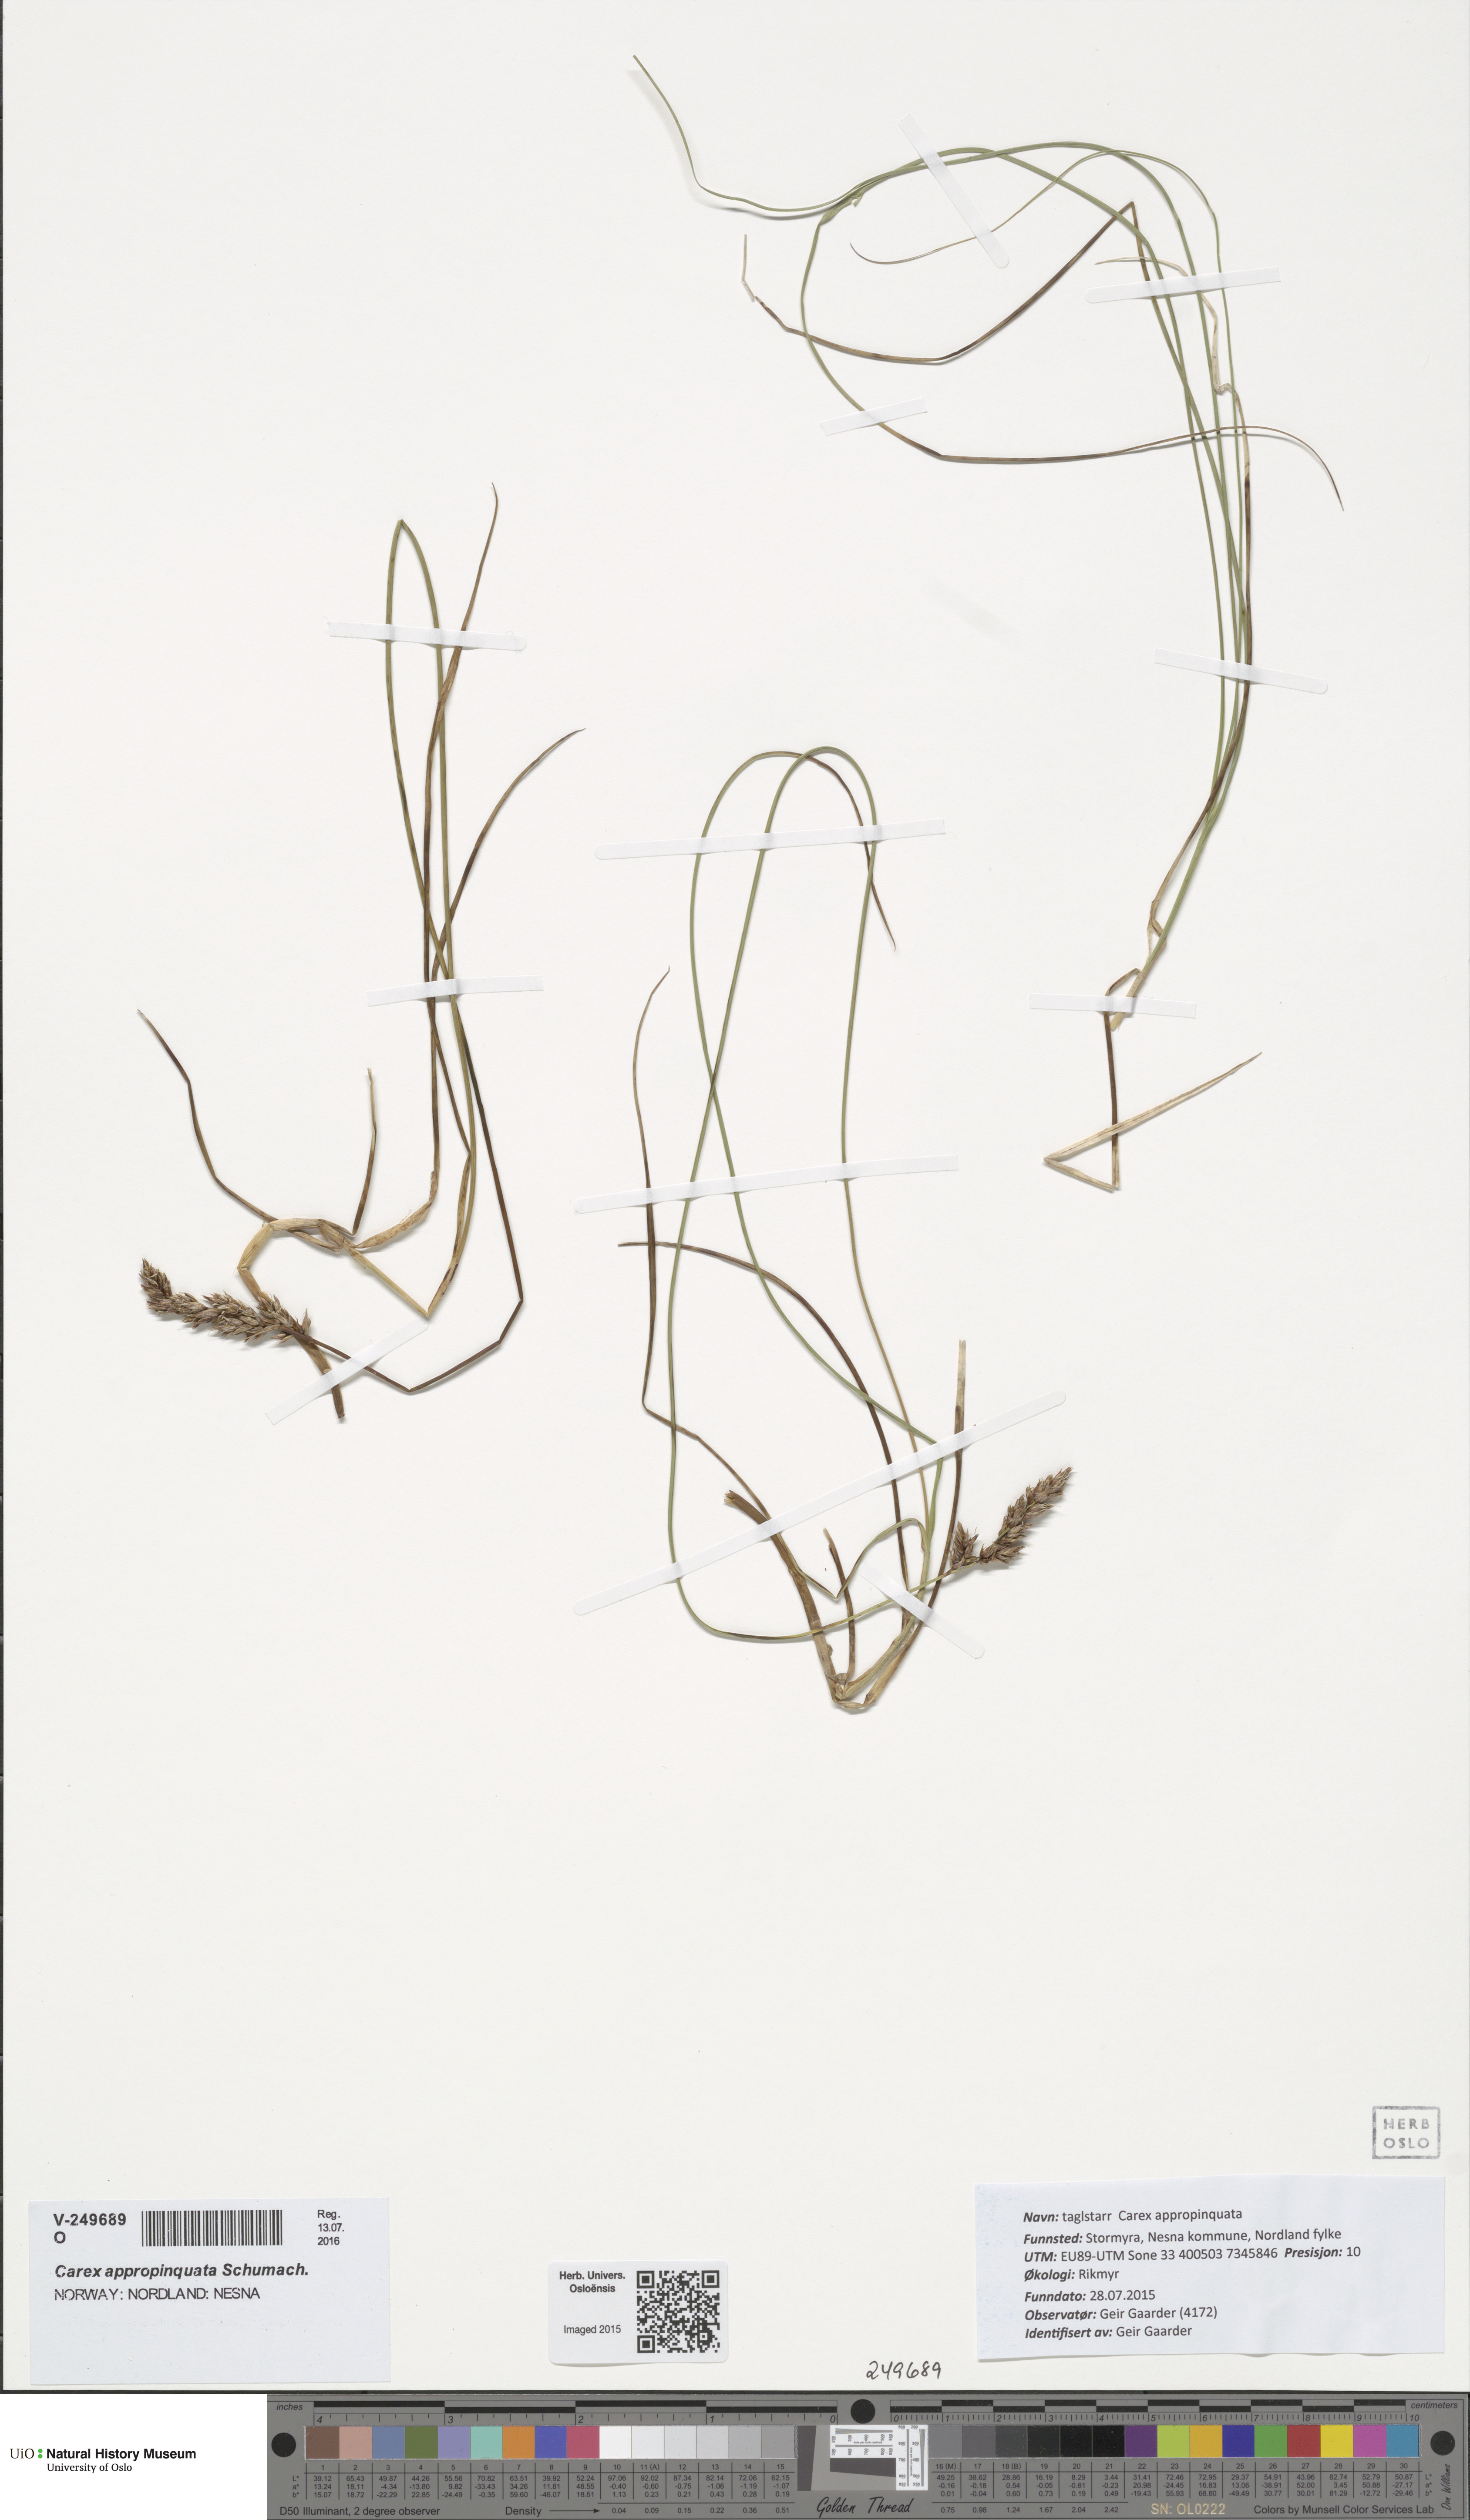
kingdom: Plantae
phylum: Tracheophyta
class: Liliopsida
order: Poales
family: Cyperaceae
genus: Carex
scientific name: Carex appropinquata
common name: Fibrous tussock-sedge
